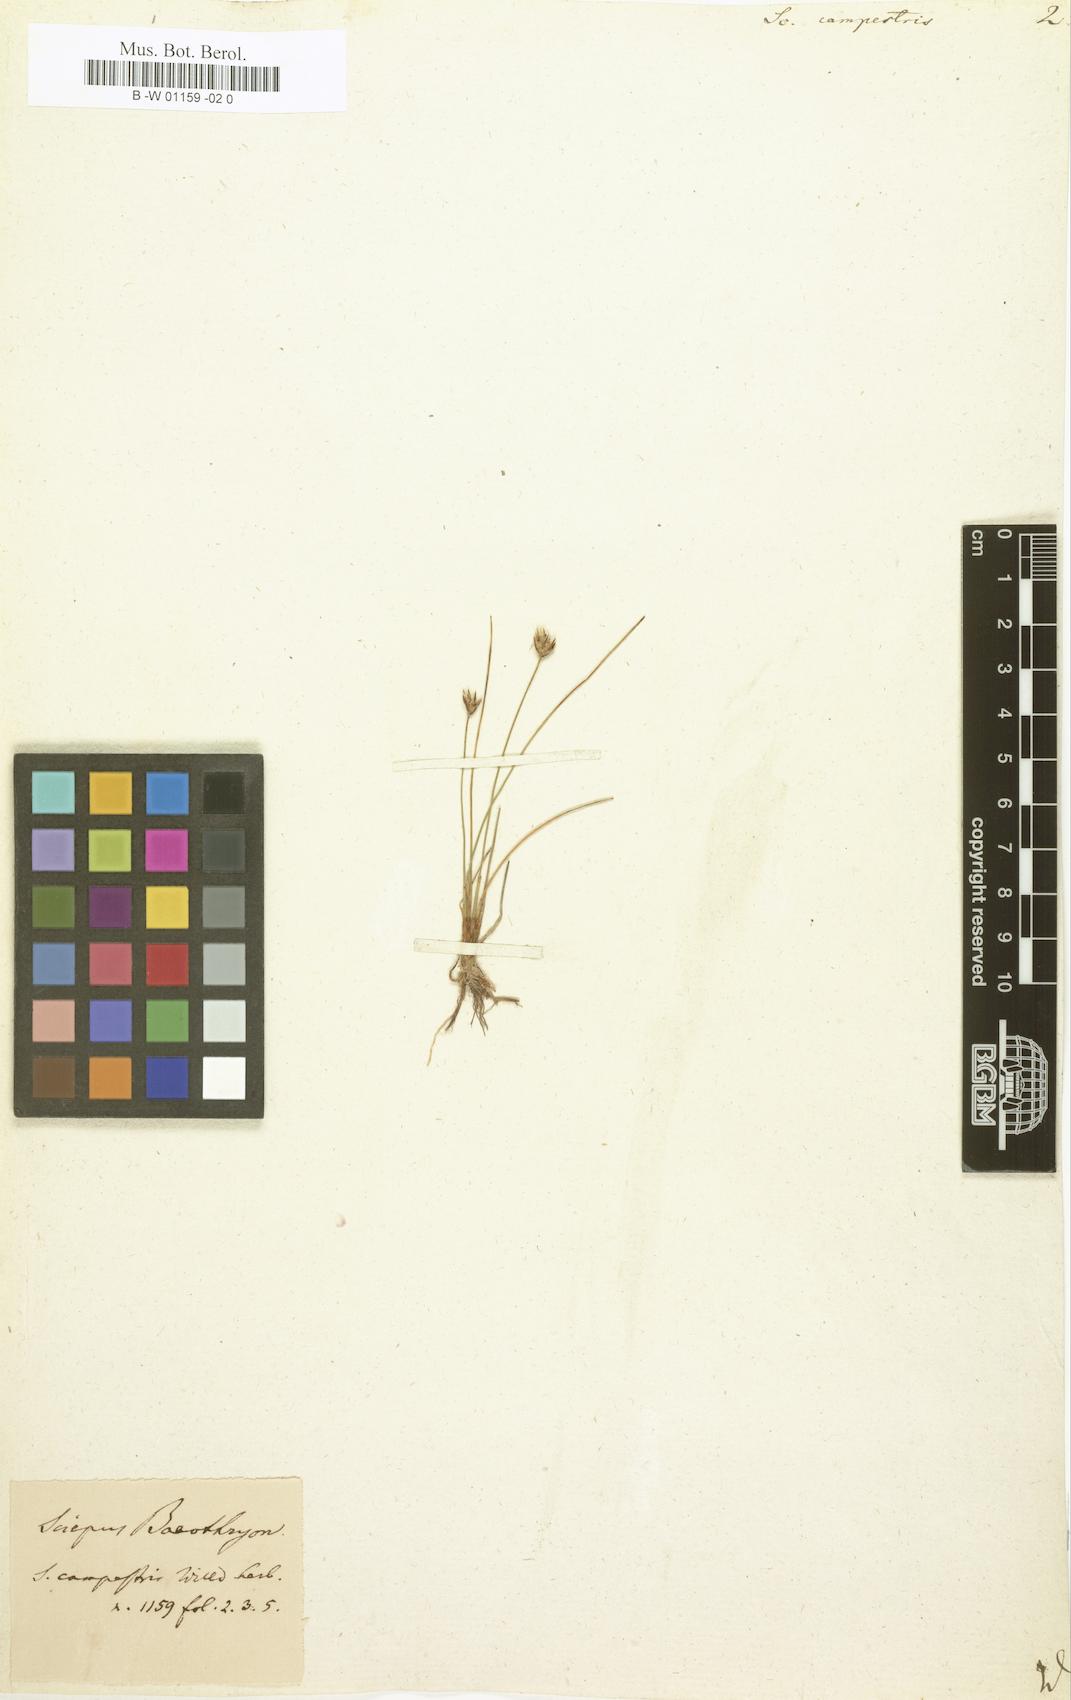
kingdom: Plantae
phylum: Tracheophyta
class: Liliopsida
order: Poales
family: Cyperaceae
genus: Eleocharis
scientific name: Eleocharis quinqueflora
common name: Few-flowered spike-rush
